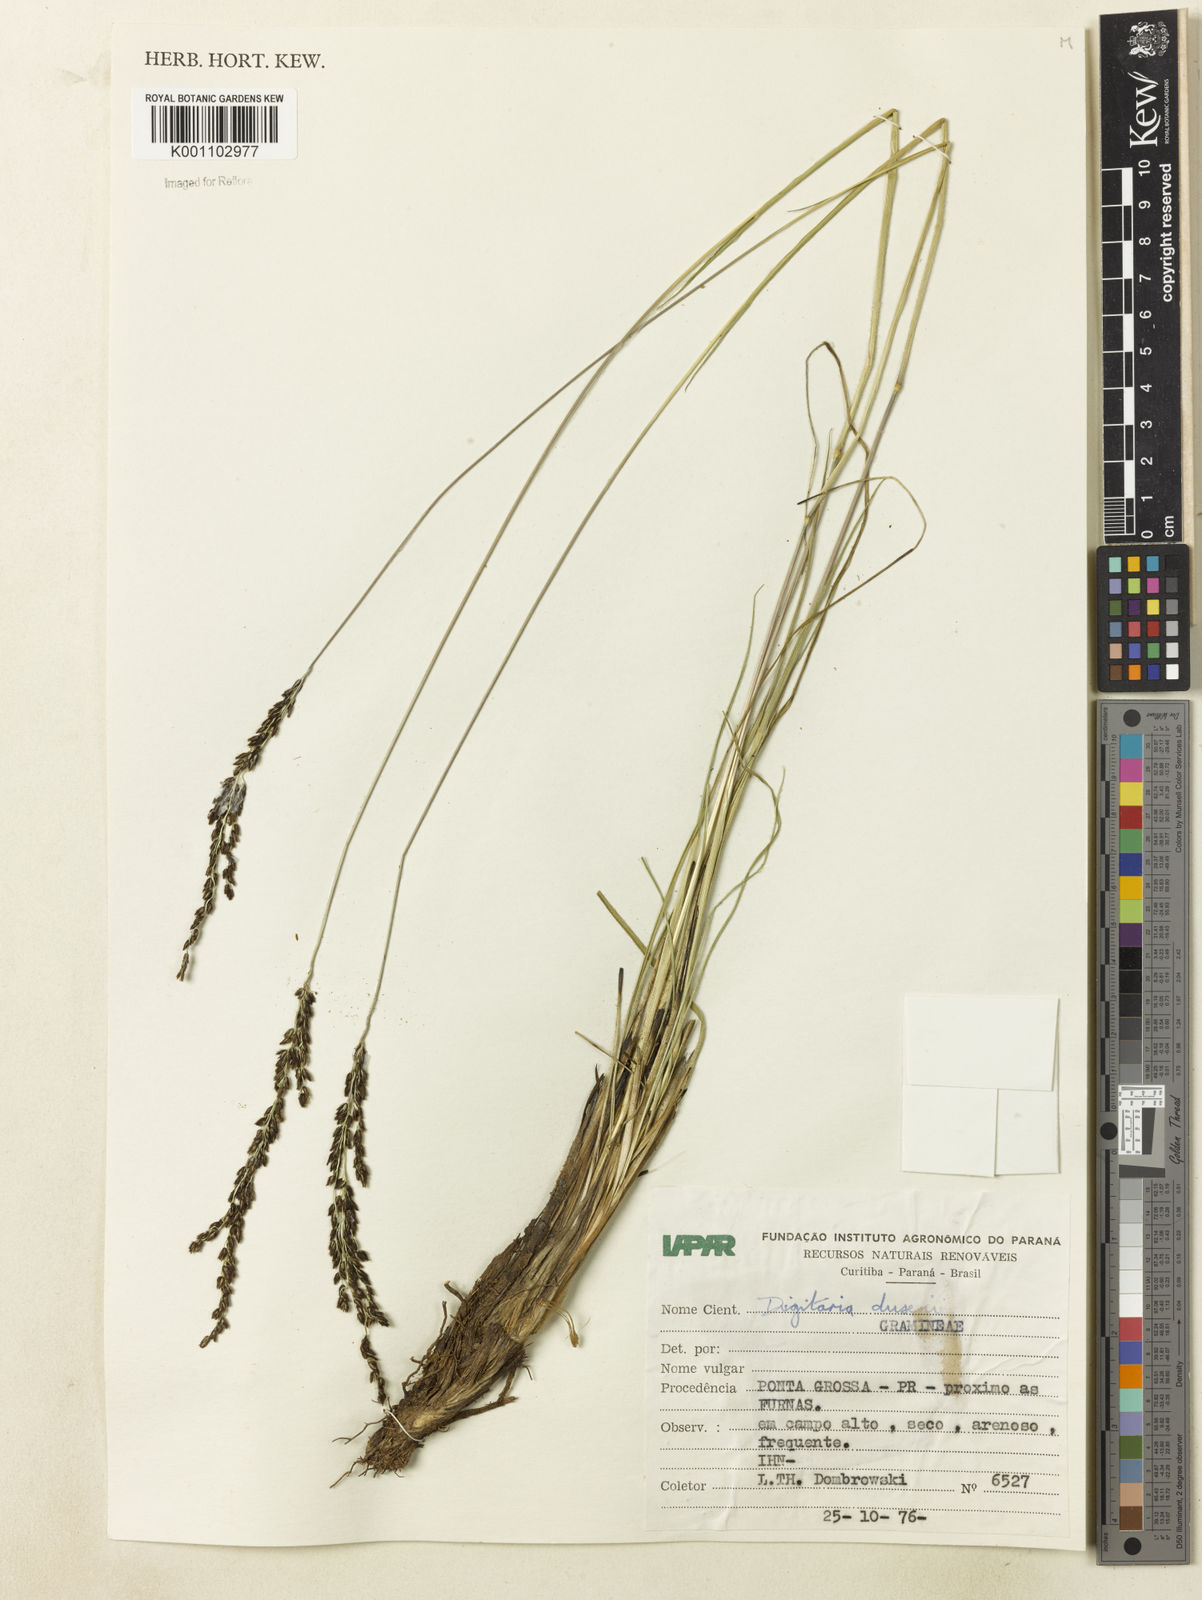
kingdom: Plantae
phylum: Tracheophyta
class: Liliopsida
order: Poales
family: Poaceae
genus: Digitaria
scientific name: Digitaria purpurea
